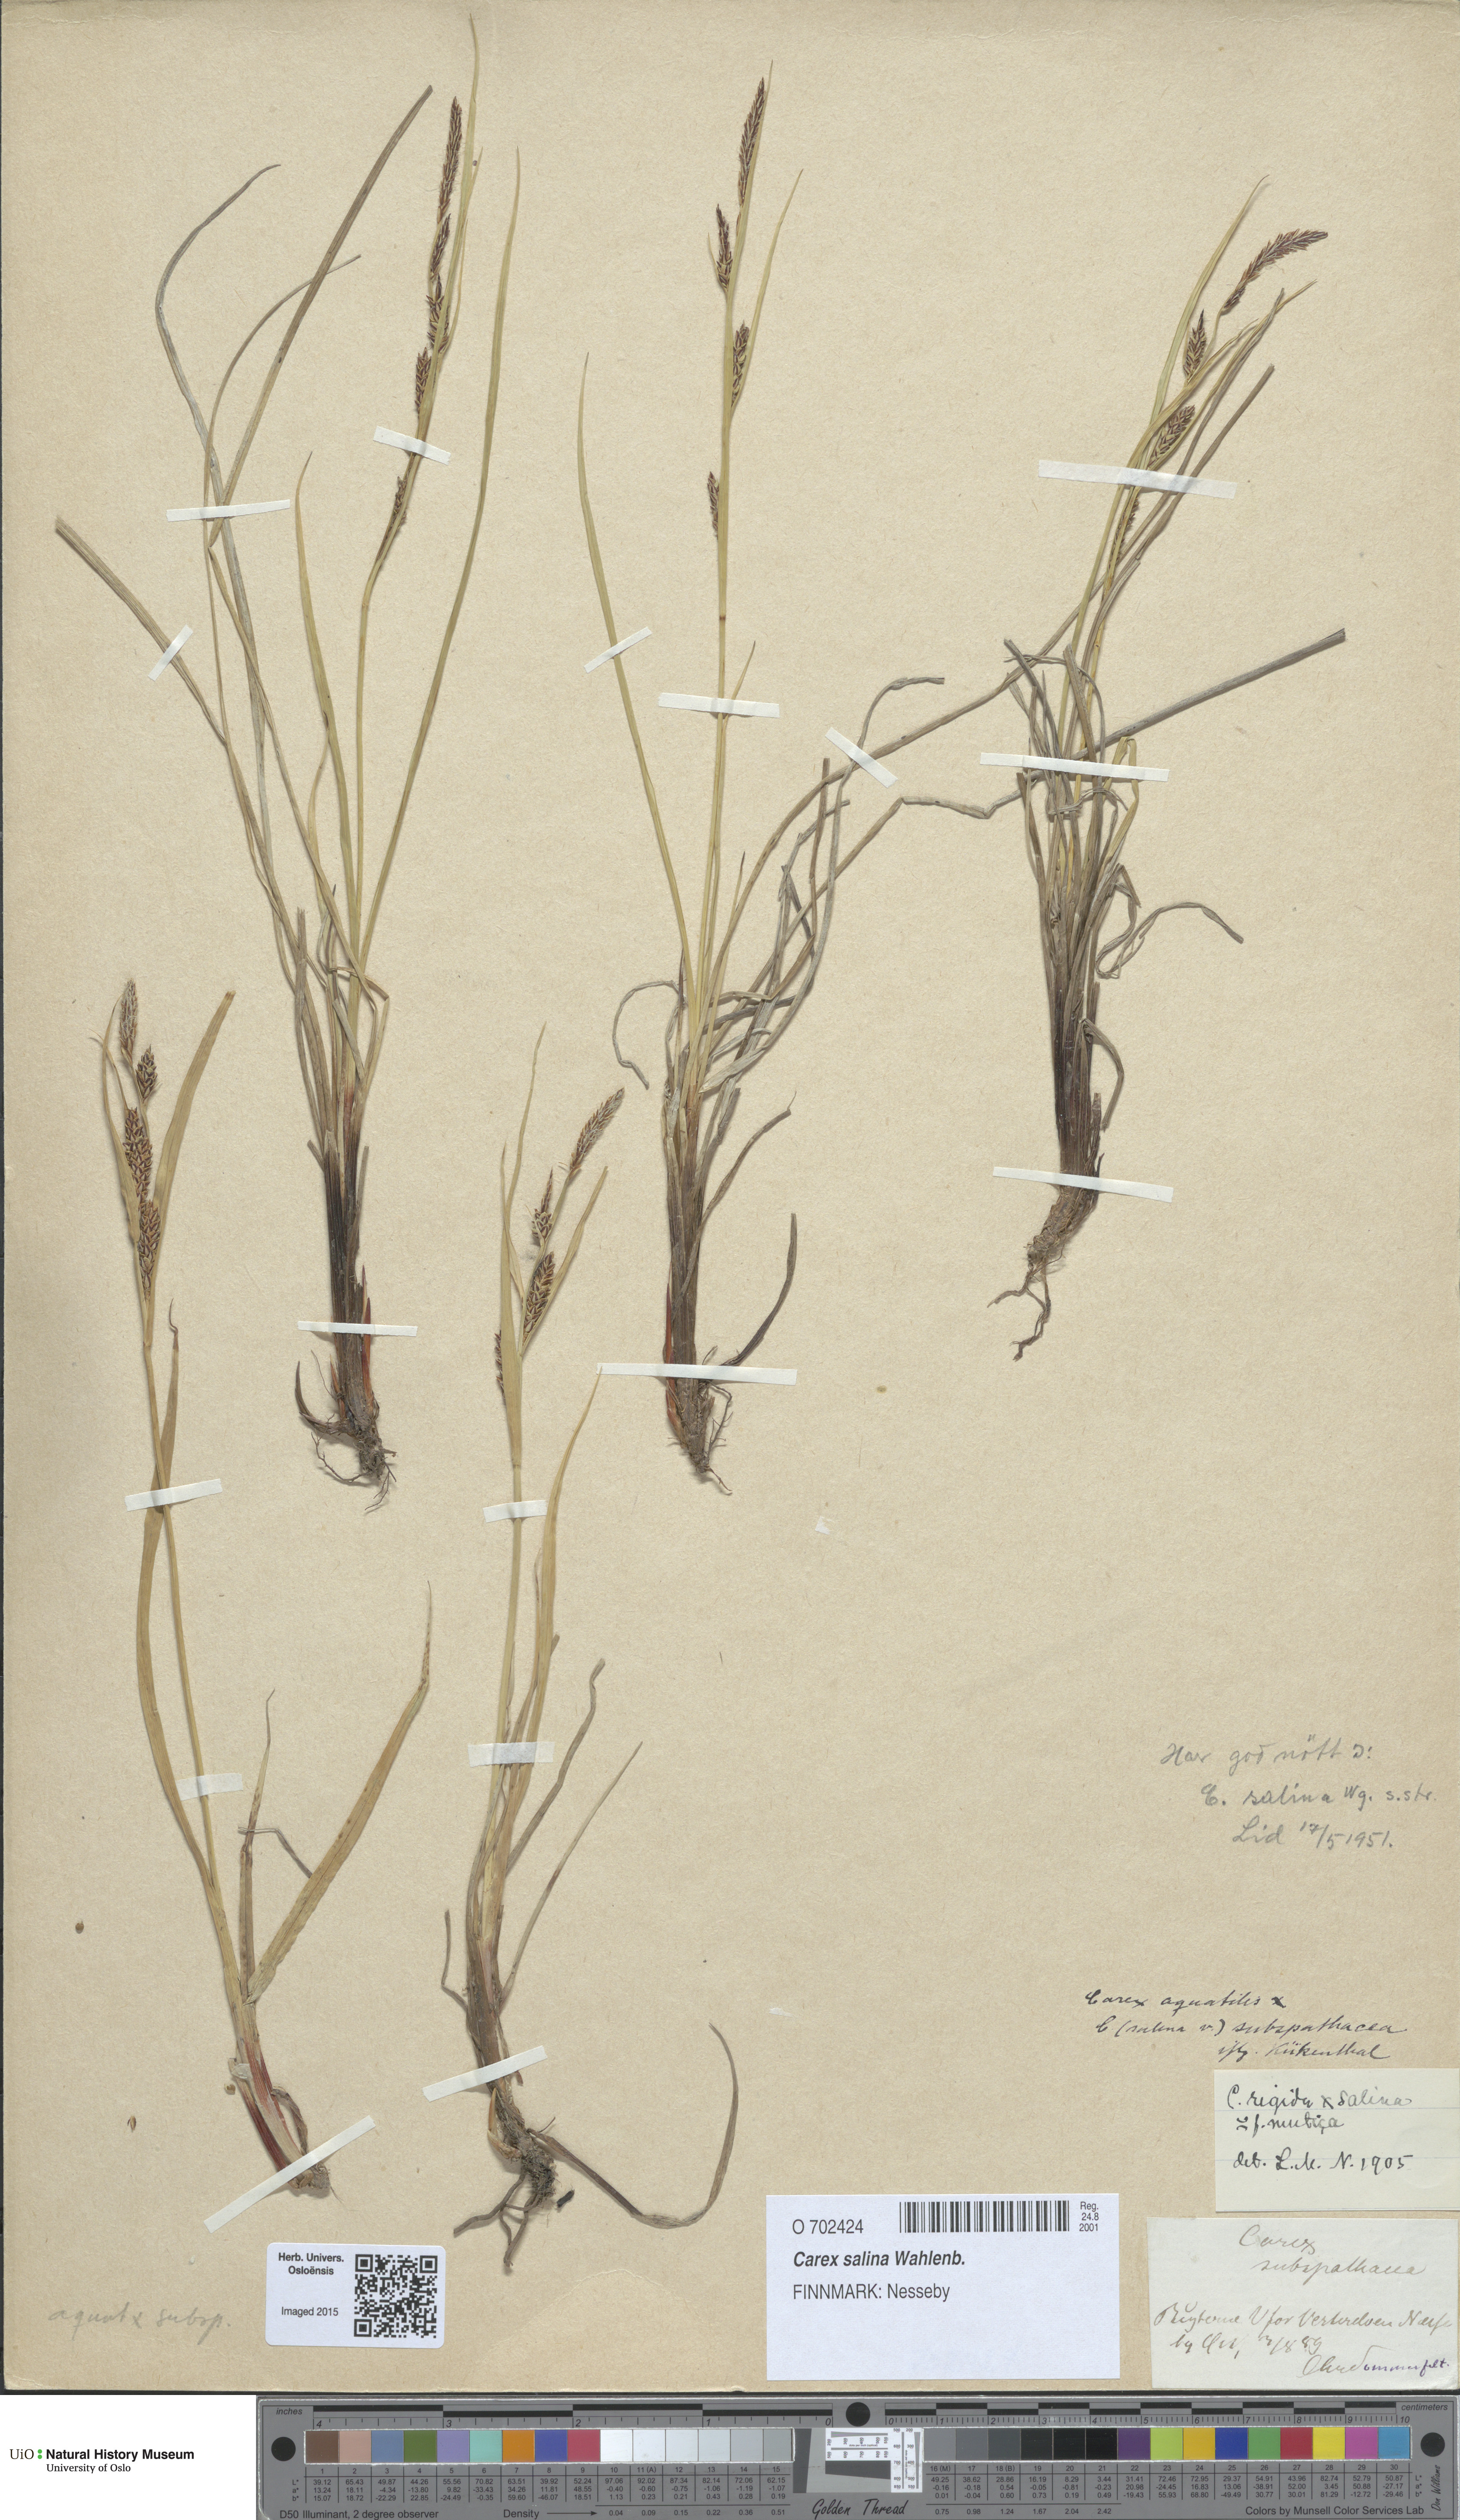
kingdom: Plantae
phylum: Tracheophyta
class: Liliopsida
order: Poales
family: Cyperaceae
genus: Carex
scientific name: Carex salina
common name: Saltmarsh sedge
